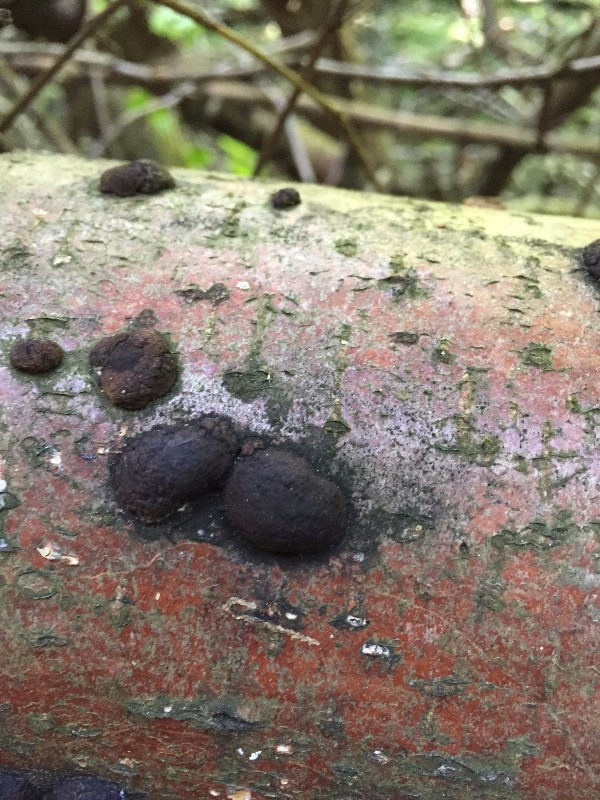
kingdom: Fungi
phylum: Ascomycota
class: Sordariomycetes
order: Xylariales
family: Hypoxylaceae
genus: Jackrogersella
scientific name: Jackrogersella multiformis
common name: foranderlig kulbær
